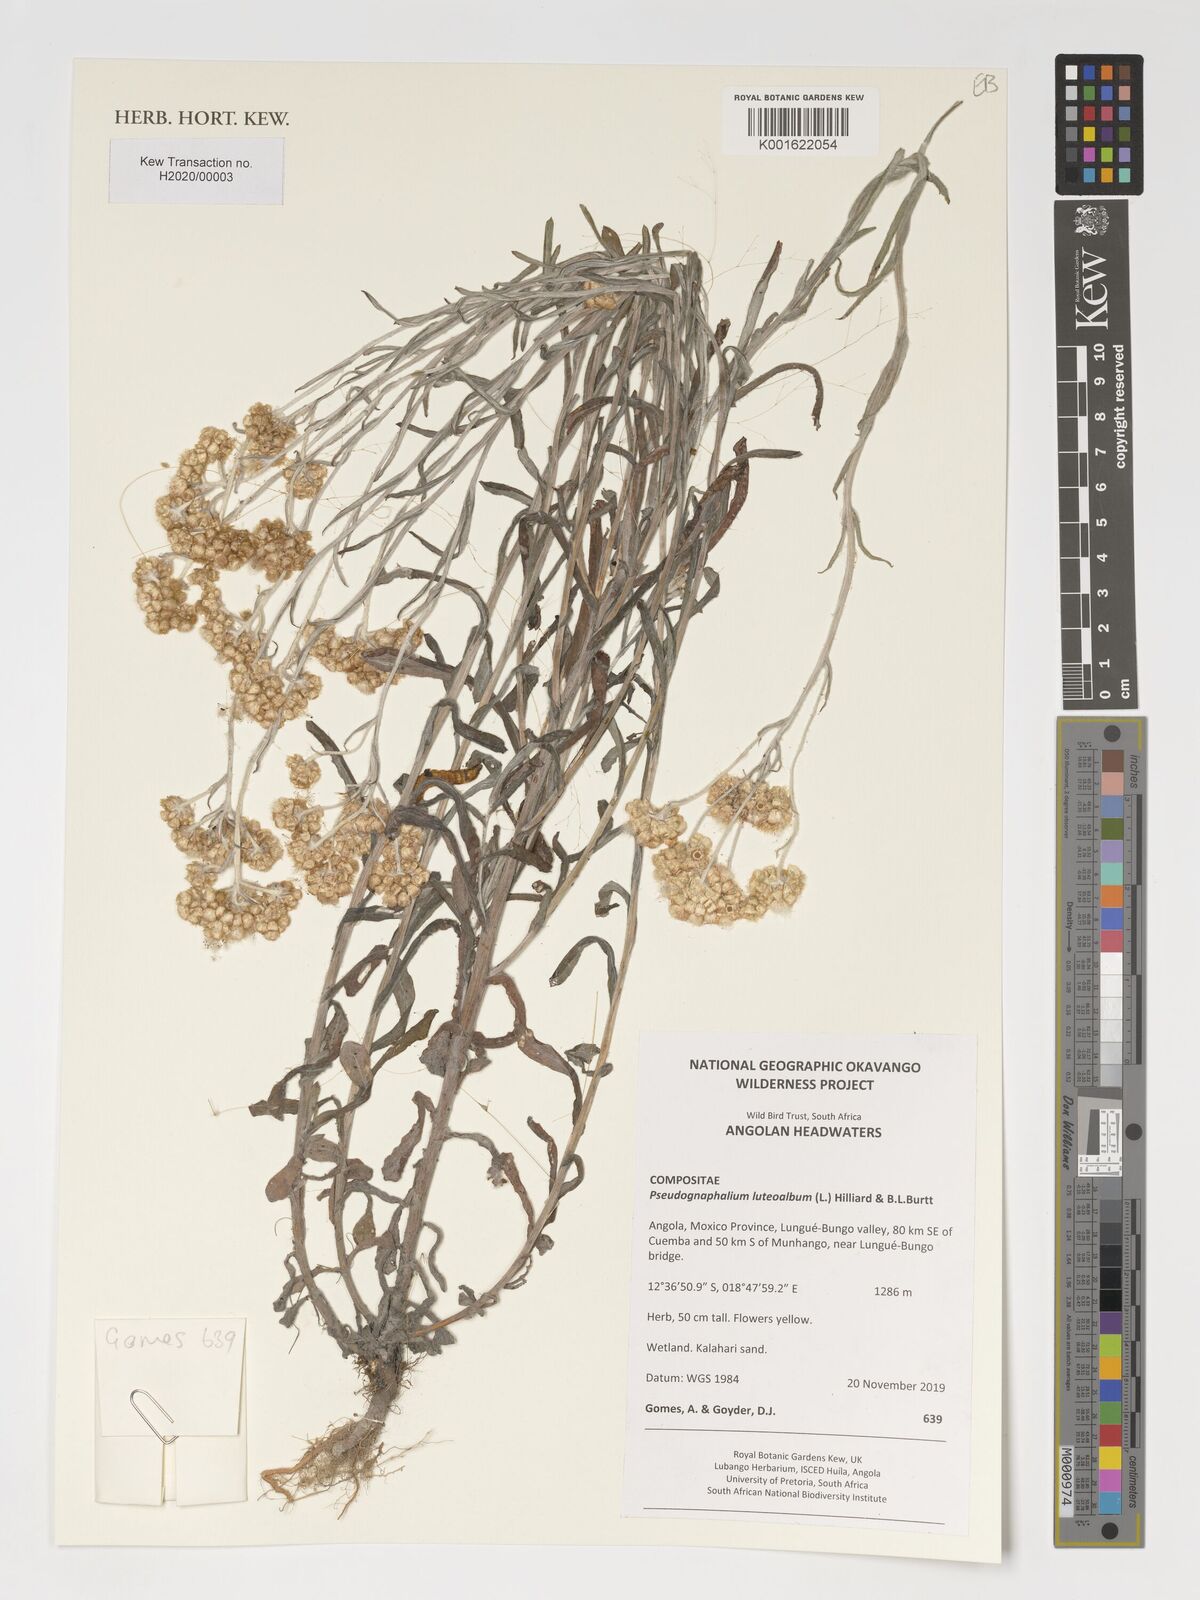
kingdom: Plantae
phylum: Tracheophyta
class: Magnoliopsida
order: Asterales
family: Asteraceae
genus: Helichrysum
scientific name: Helichrysum luteoalbum
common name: Daisy
